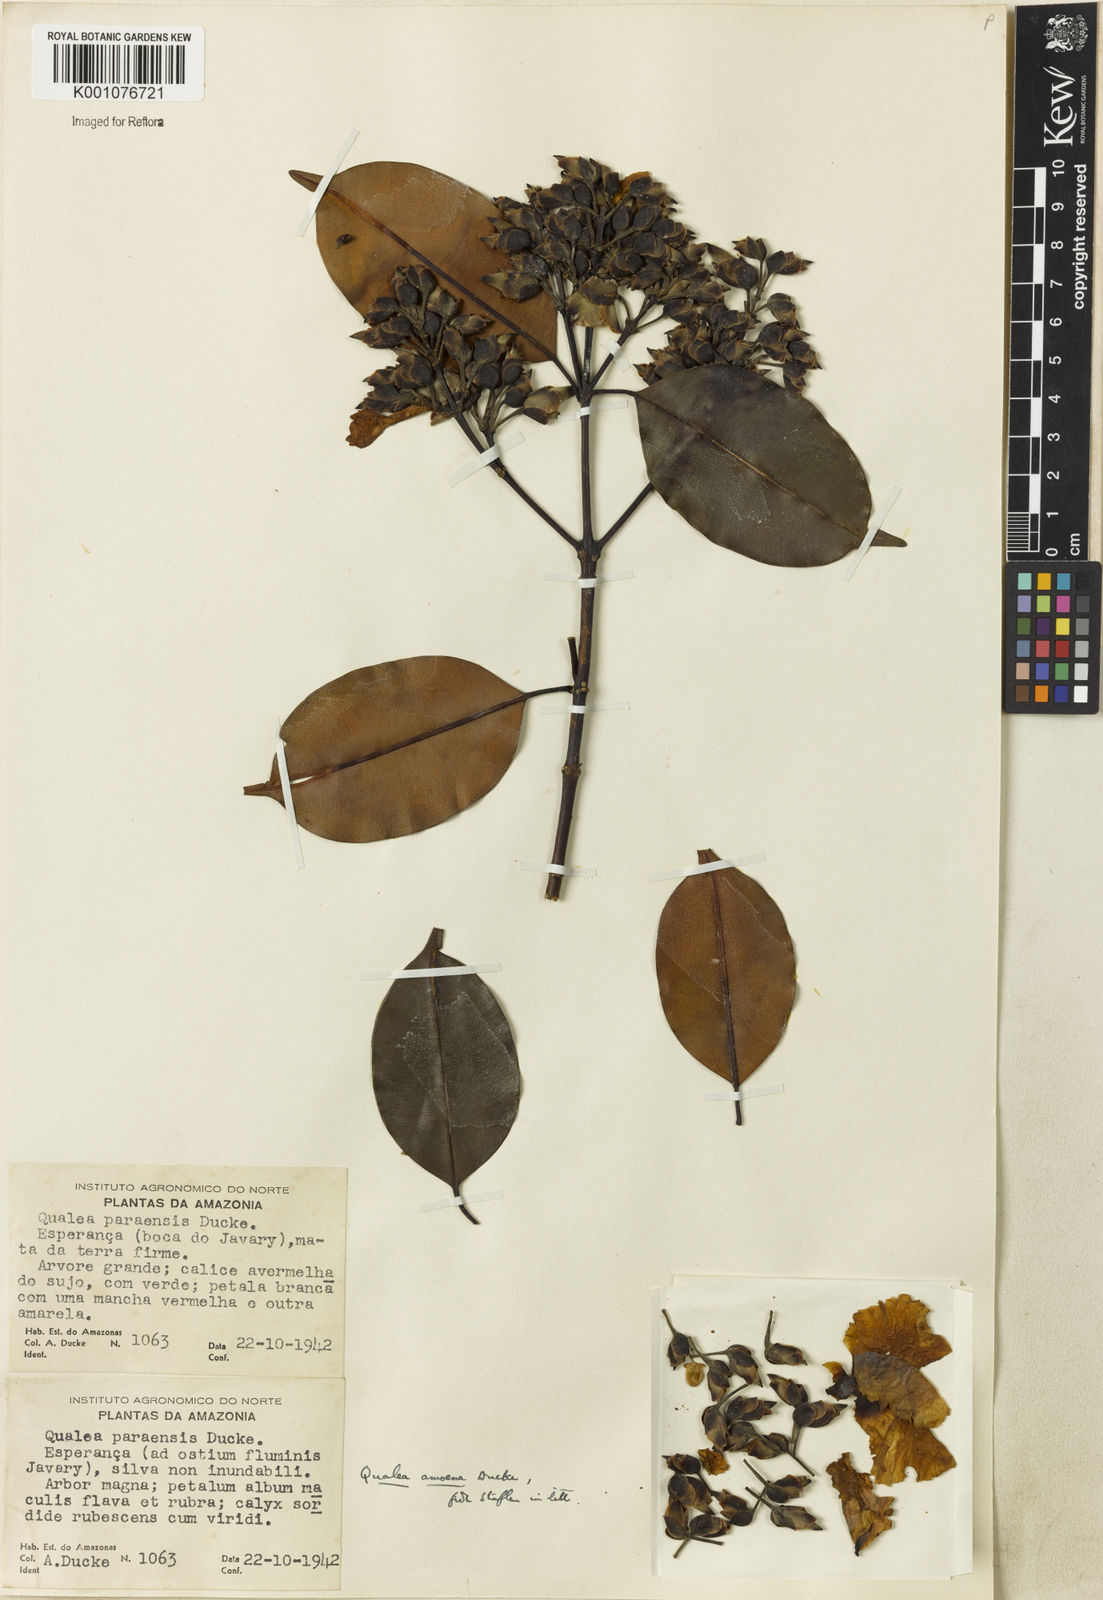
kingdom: Plantae
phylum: Tracheophyta
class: Magnoliopsida
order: Myrtales
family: Vochysiaceae
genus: Qualea
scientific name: Qualea amoena
